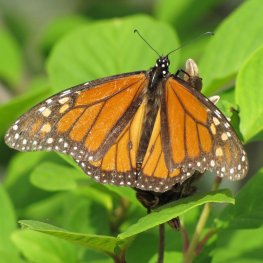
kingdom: Animalia
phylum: Arthropoda
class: Insecta
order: Lepidoptera
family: Nymphalidae
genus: Danaus
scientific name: Danaus plexippus
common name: Monarch
